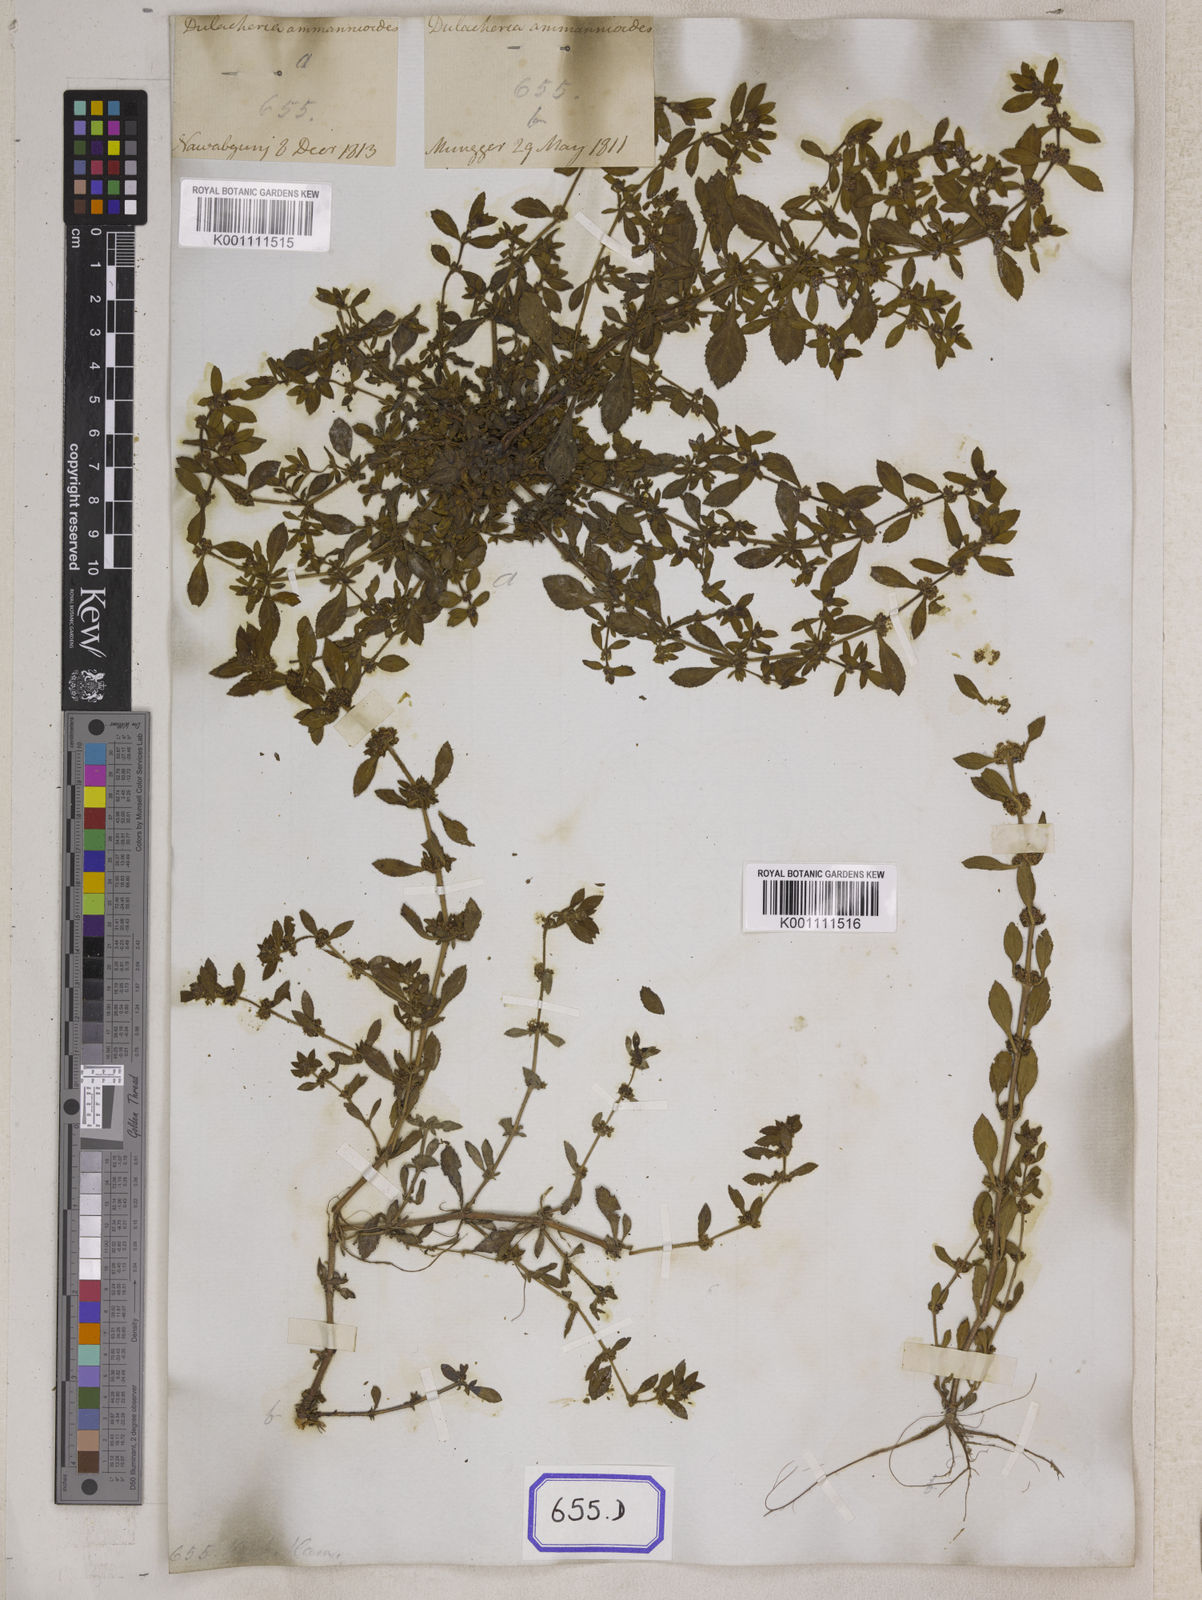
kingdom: Plantae
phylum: Tracheophyta
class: Magnoliopsida
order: Malpighiales
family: Elatinaceae
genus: Bergia
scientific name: Bergia ammannioides
